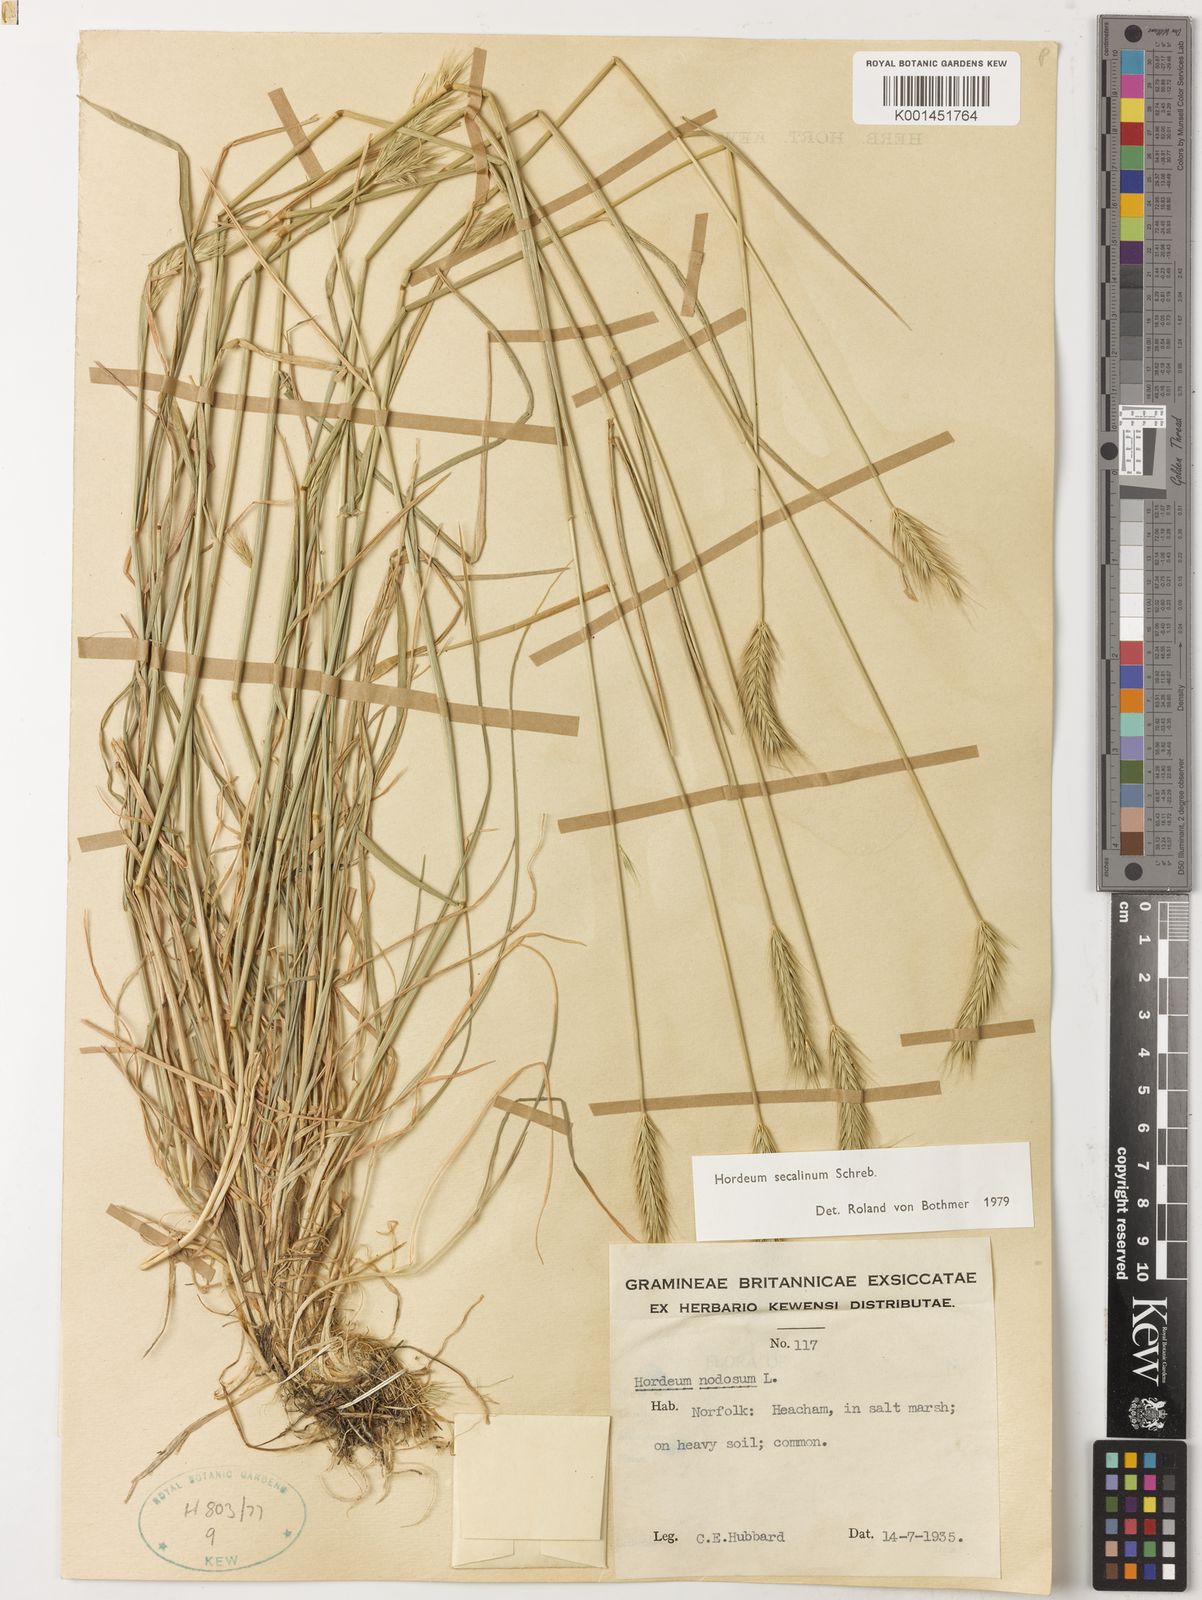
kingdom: Plantae
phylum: Tracheophyta
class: Liliopsida
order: Poales
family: Poaceae
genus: Hordeum
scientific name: Hordeum secalinum
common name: Meadow barley
